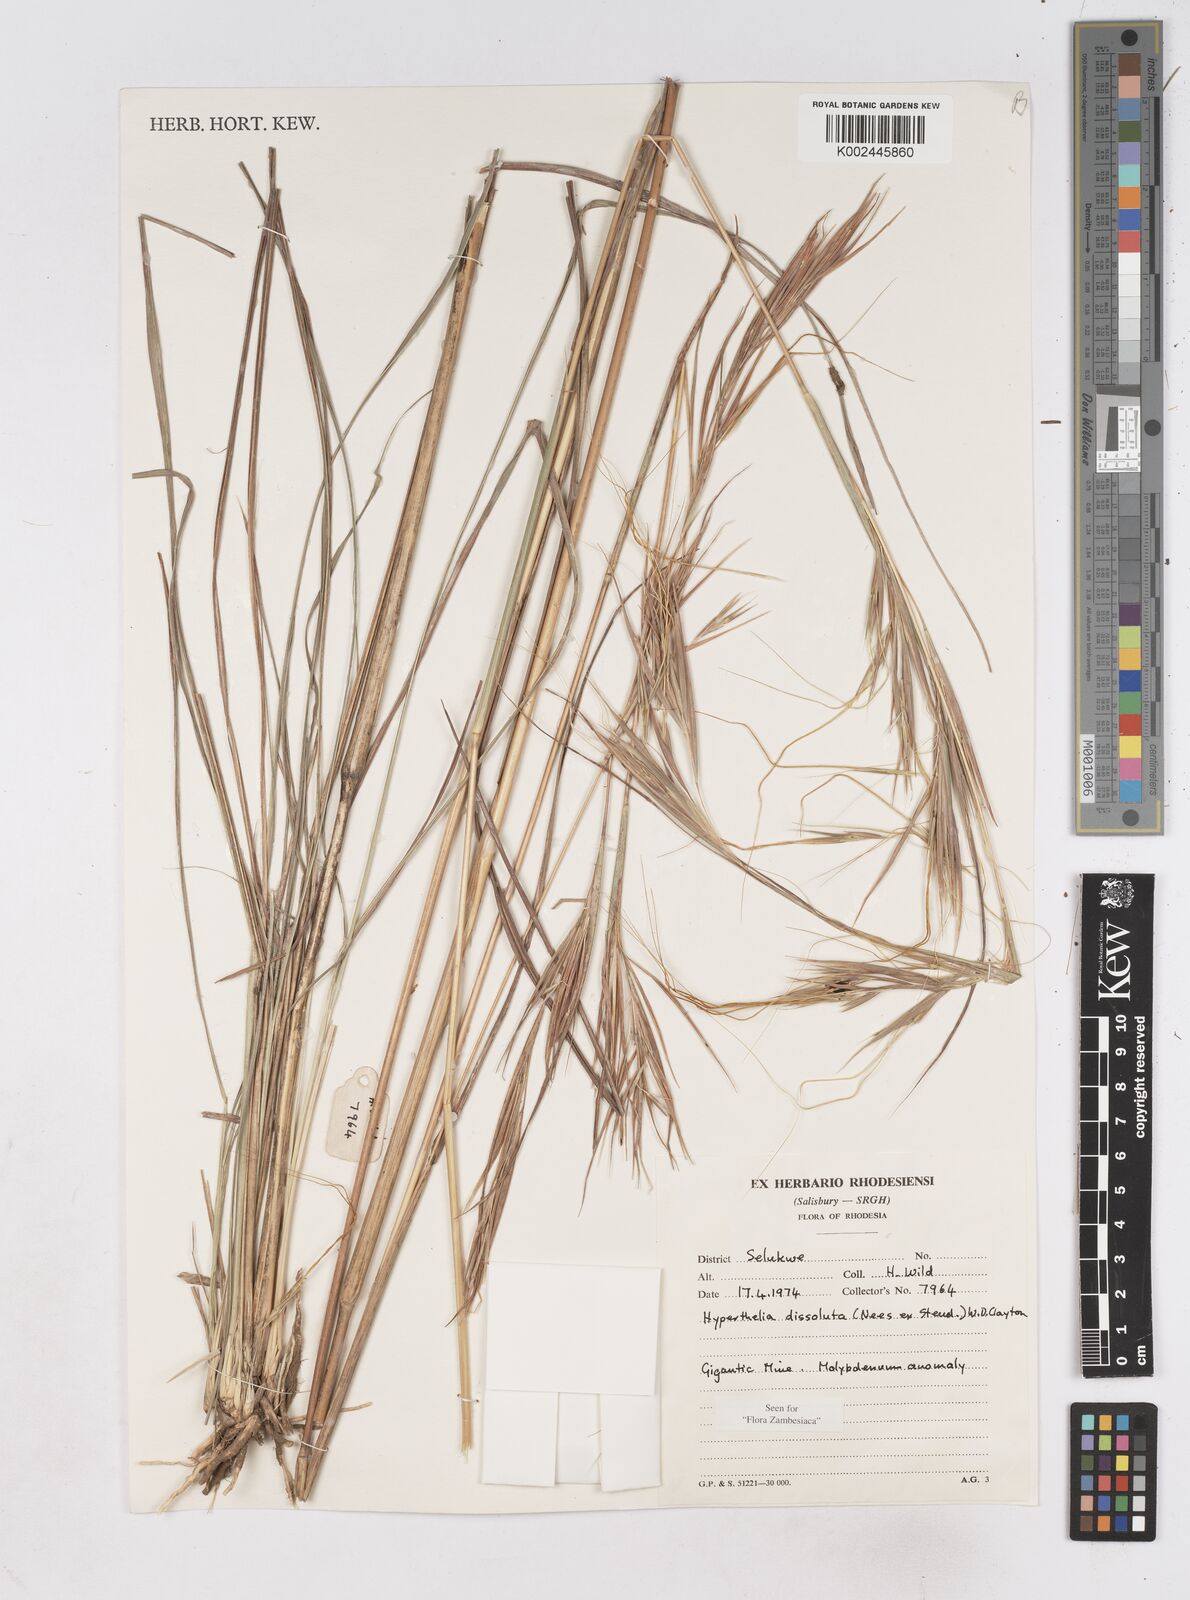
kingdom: Plantae
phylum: Tracheophyta
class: Liliopsida
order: Poales
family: Poaceae
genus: Hyperthelia
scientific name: Hyperthelia dissoluta
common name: Yellow thatching grass
